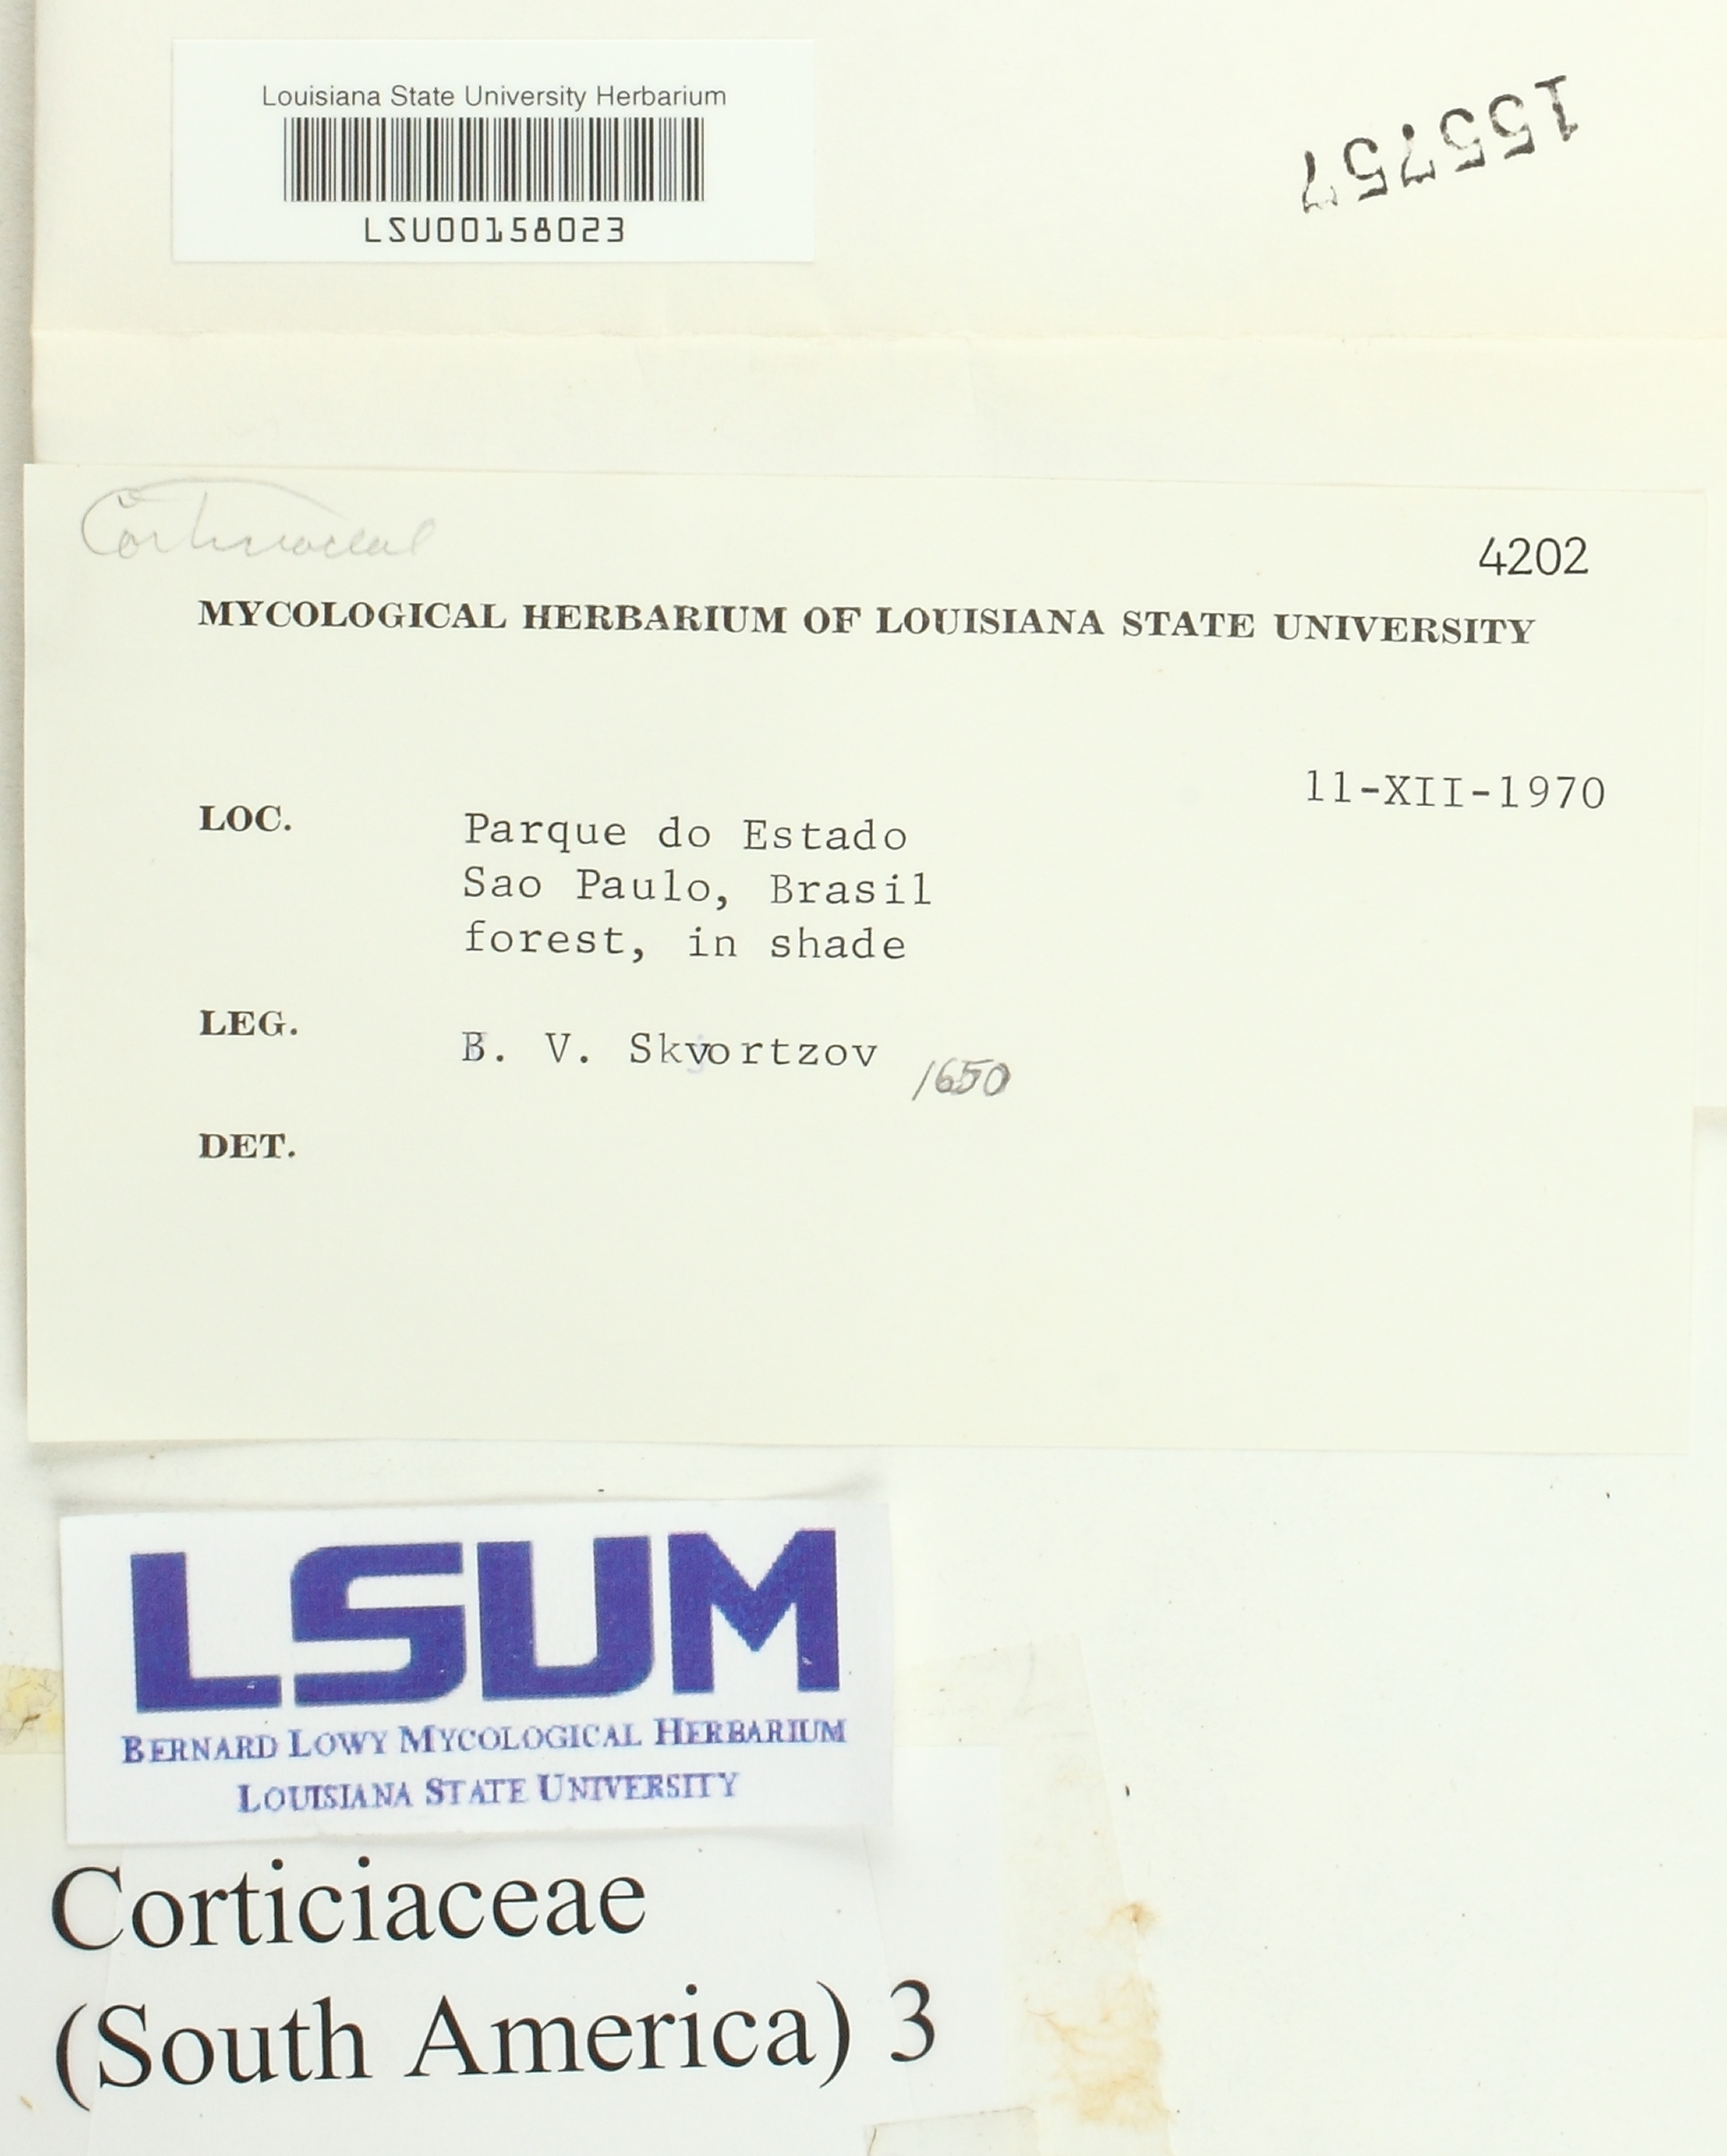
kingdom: Fungi
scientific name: Fungi
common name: Fungi
